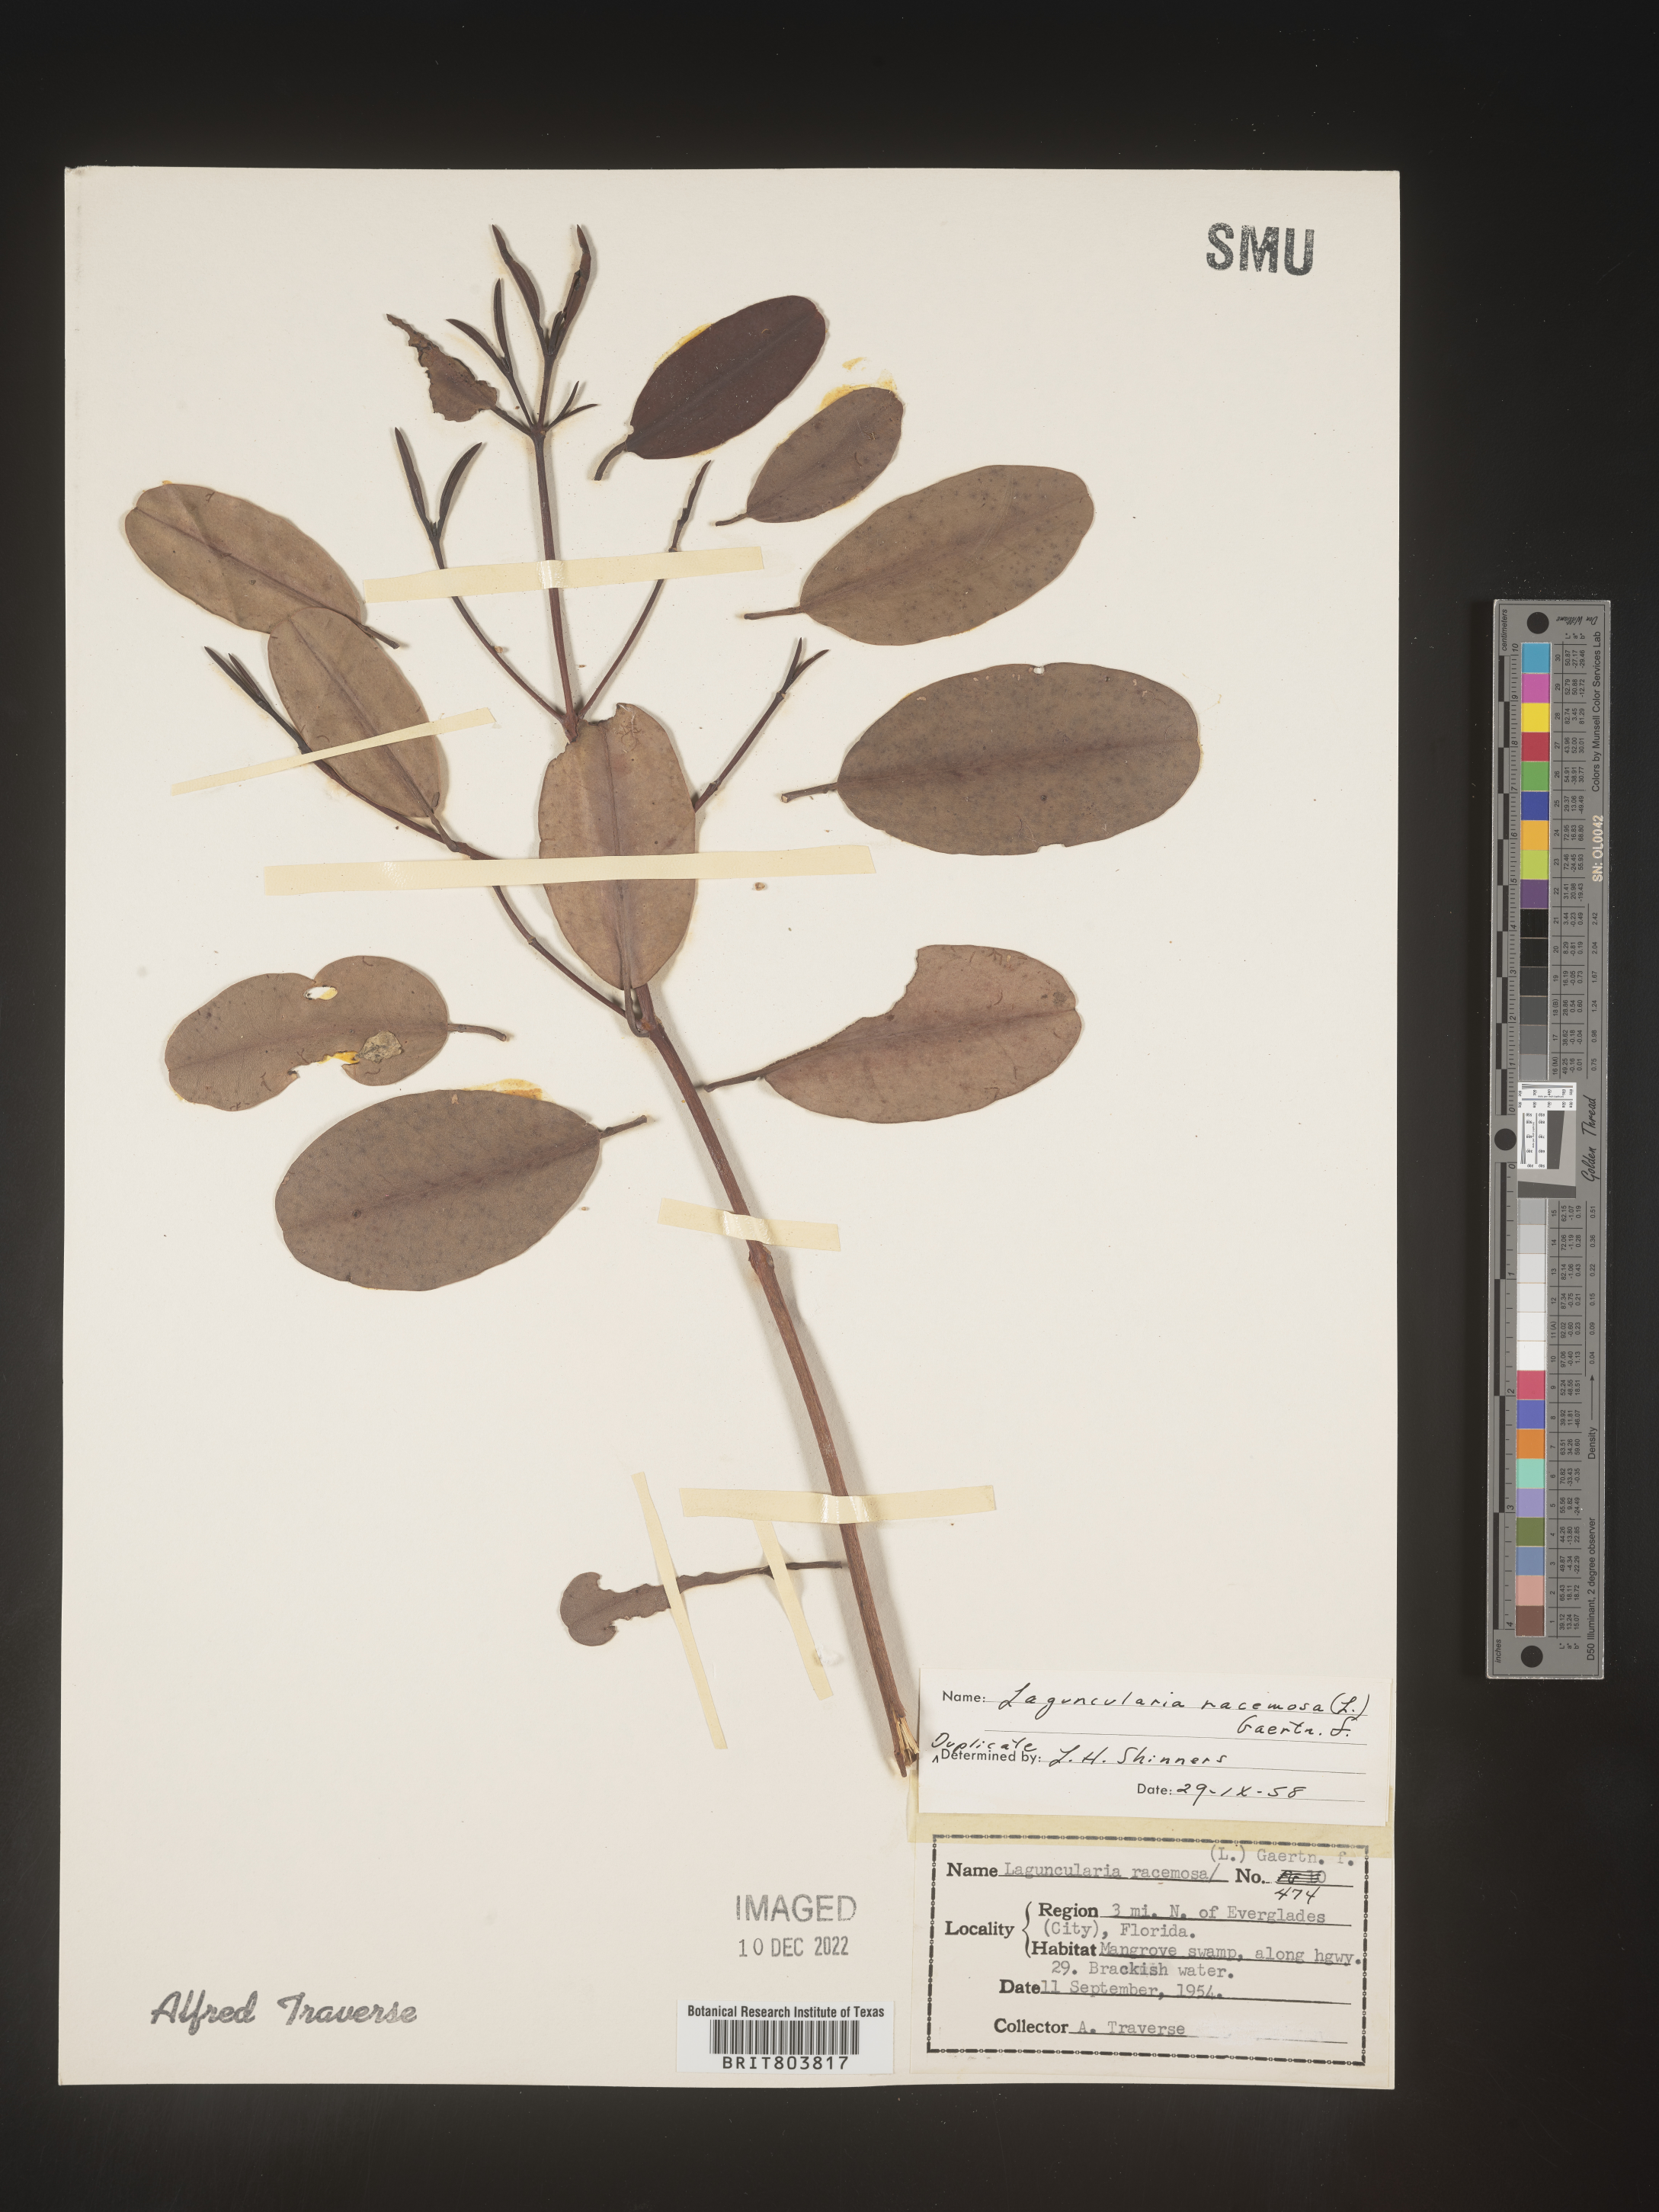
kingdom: Plantae
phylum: Tracheophyta
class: Magnoliopsida
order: Myrtales
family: Combretaceae
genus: Laguncularia
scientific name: Laguncularia
